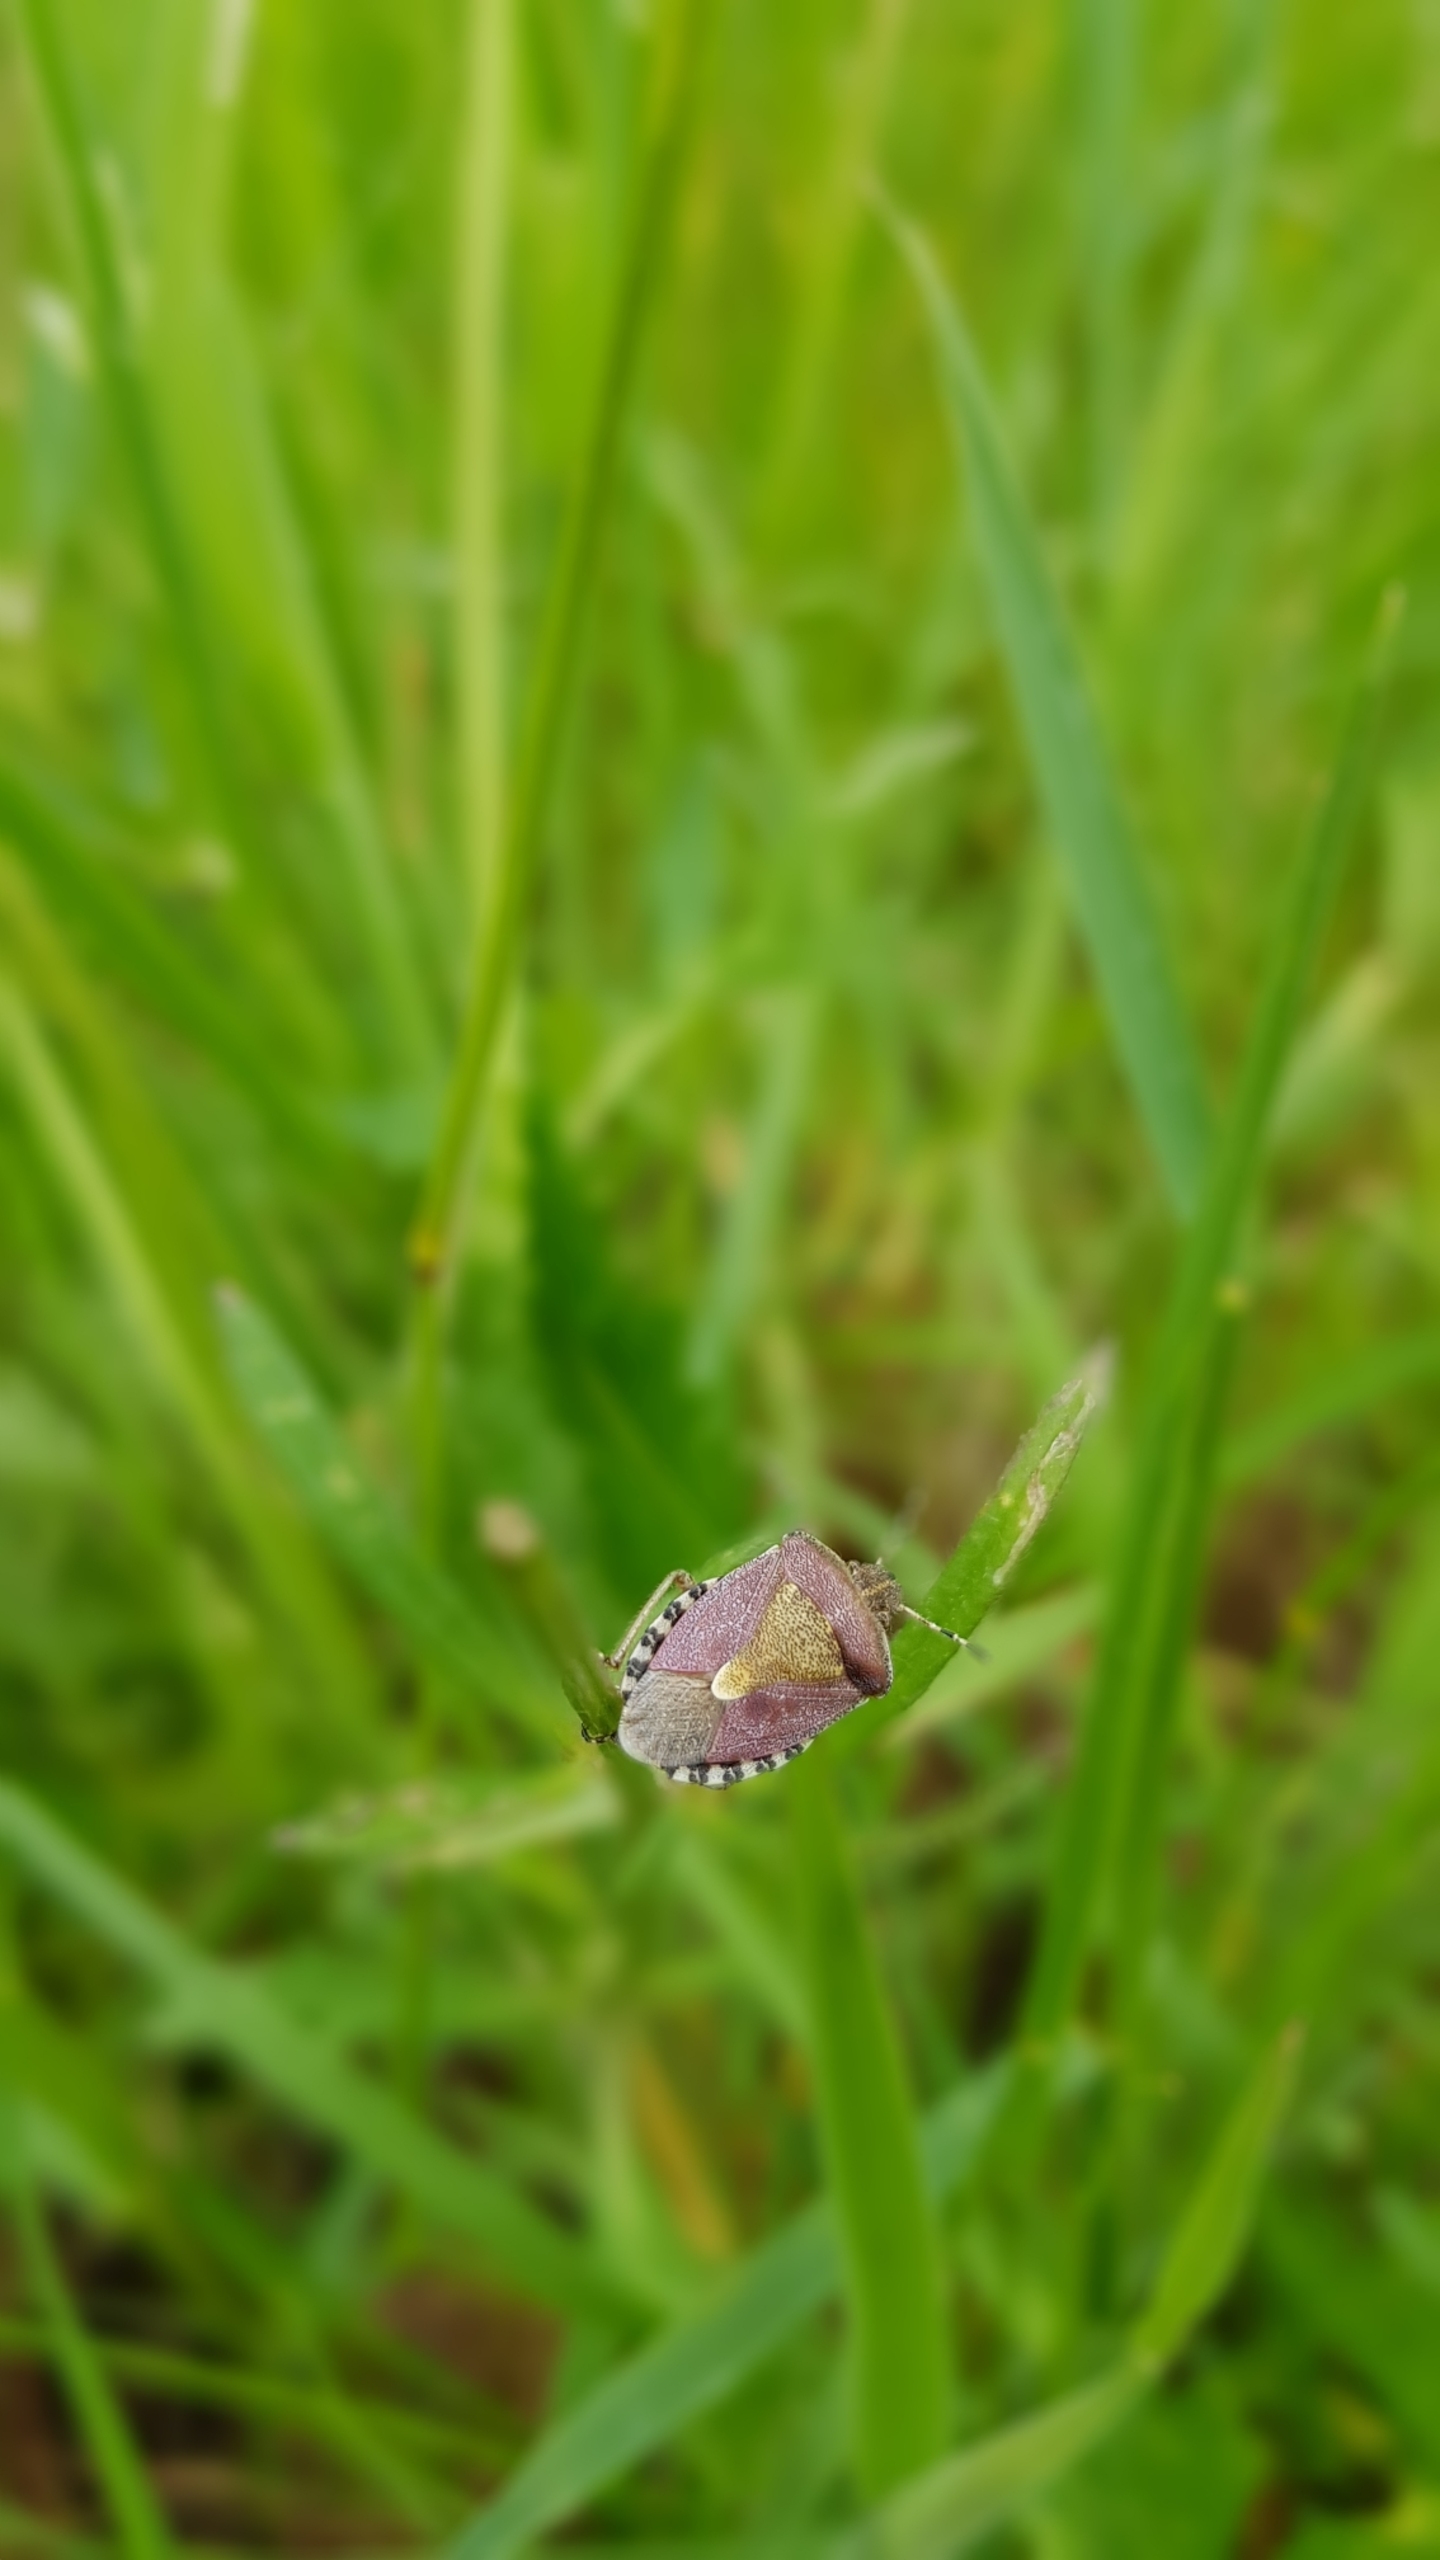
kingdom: Animalia
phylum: Arthropoda
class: Insecta
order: Hemiptera
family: Pentatomidae
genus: Dolycoris
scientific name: Dolycoris baccarum
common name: Almindelig bærtæge
